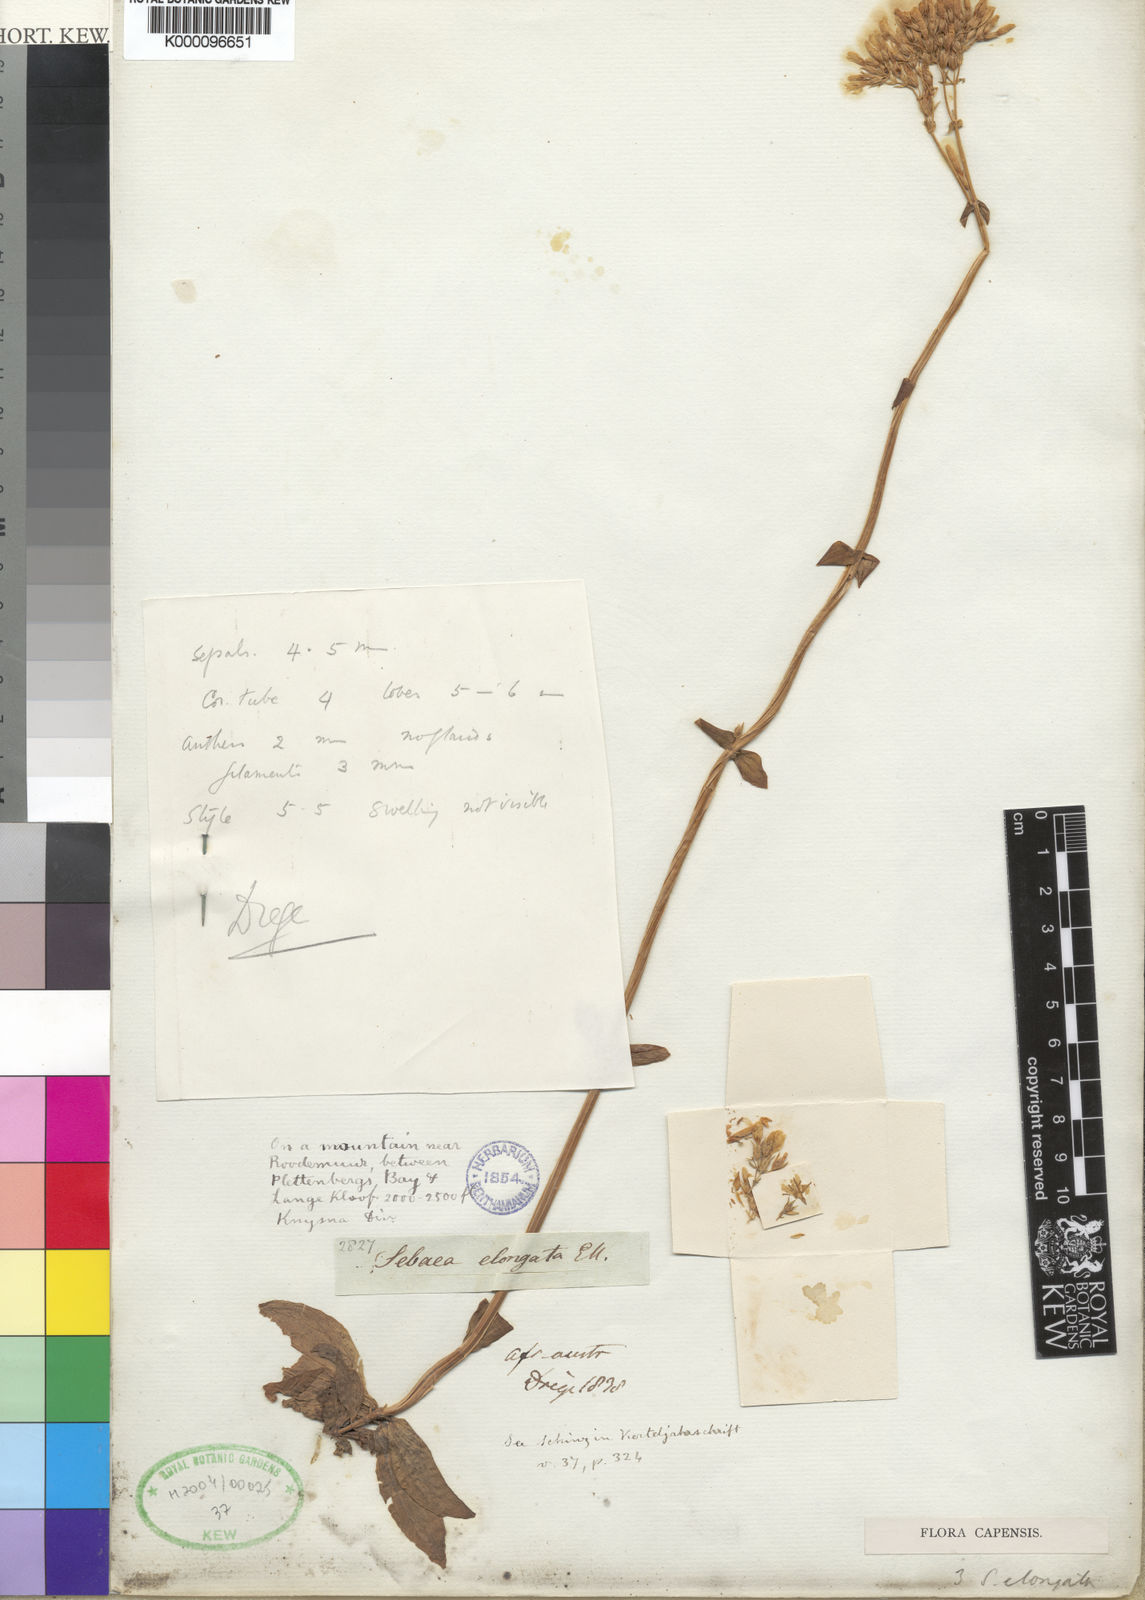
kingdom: Plantae
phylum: Tracheophyta
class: Magnoliopsida
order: Gentianales
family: Gentianaceae
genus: Sebaea
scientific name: Sebaea
